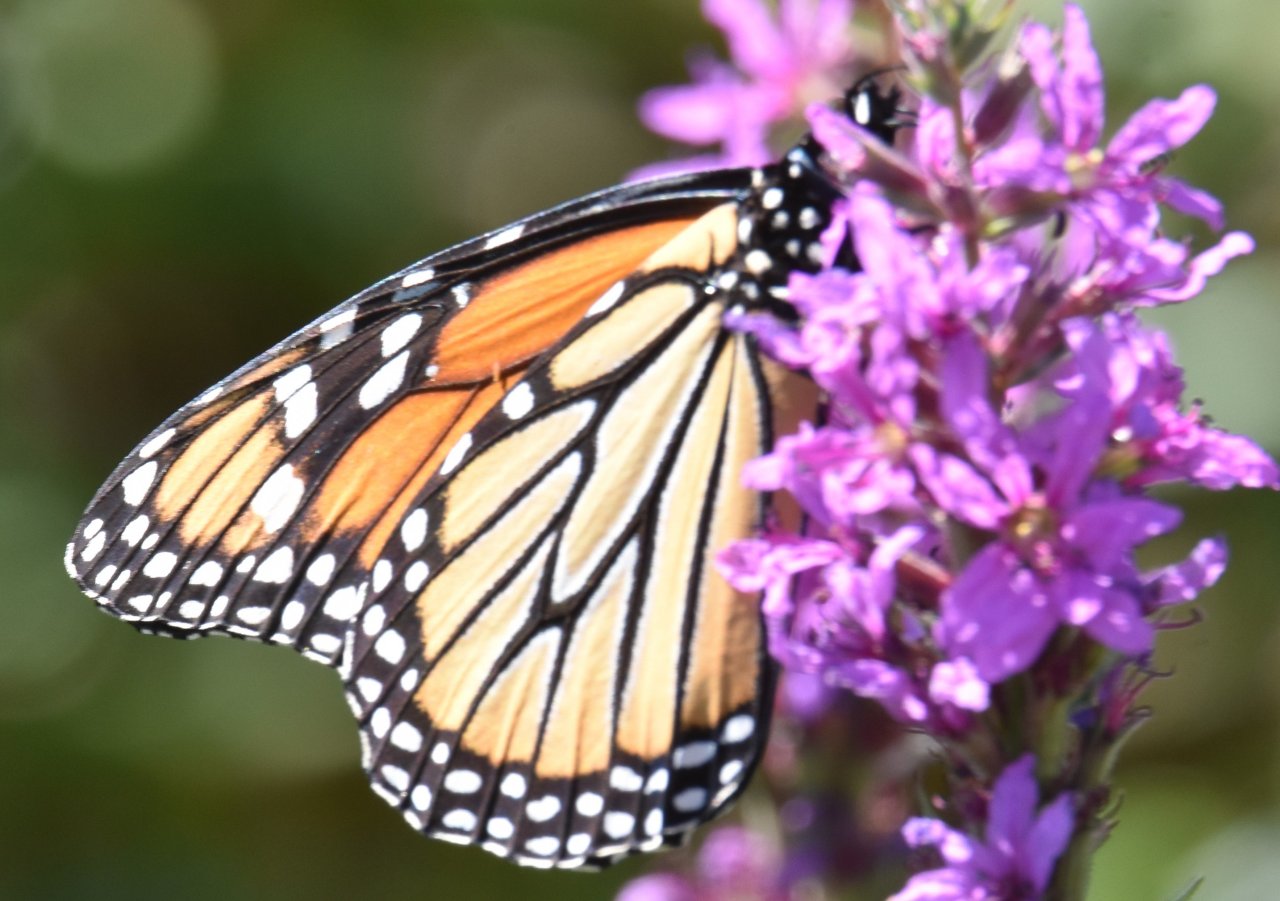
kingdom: Animalia
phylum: Arthropoda
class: Insecta
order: Lepidoptera
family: Nymphalidae
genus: Danaus
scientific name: Danaus plexippus
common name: Monarch
